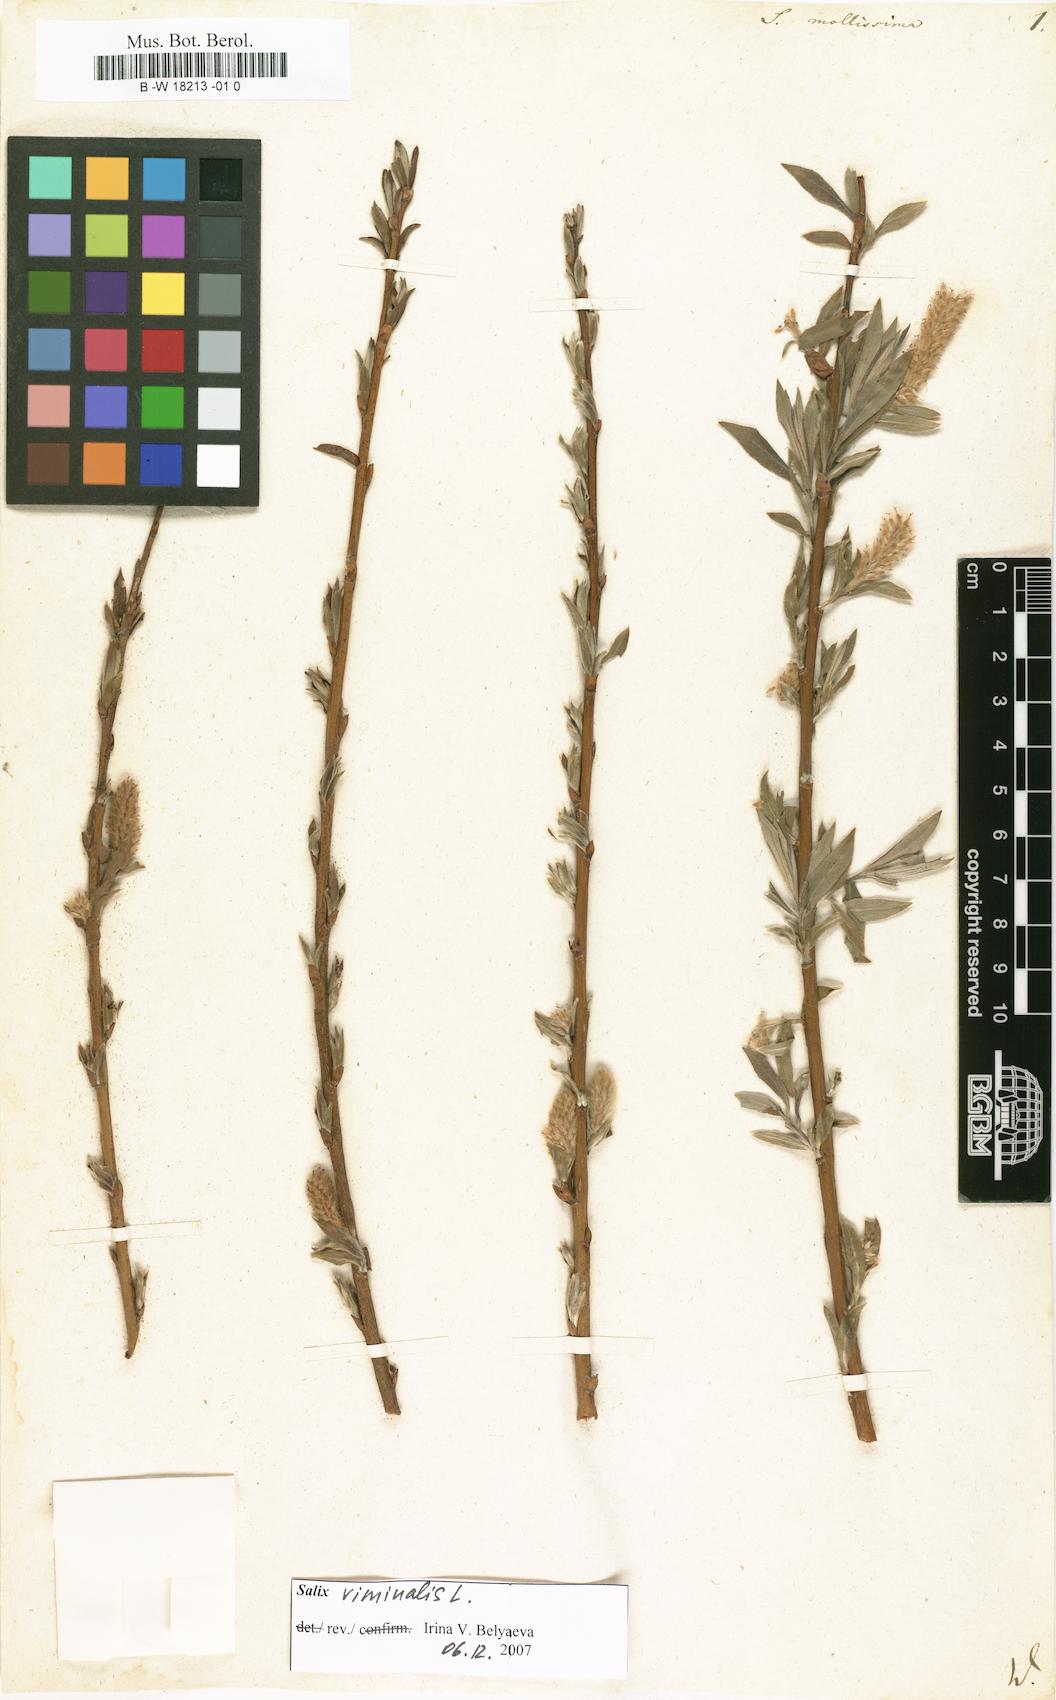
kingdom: Plantae
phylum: Tracheophyta
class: Magnoliopsida
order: Malpighiales
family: Salicaceae
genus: Salix
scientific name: Salix mollissima
